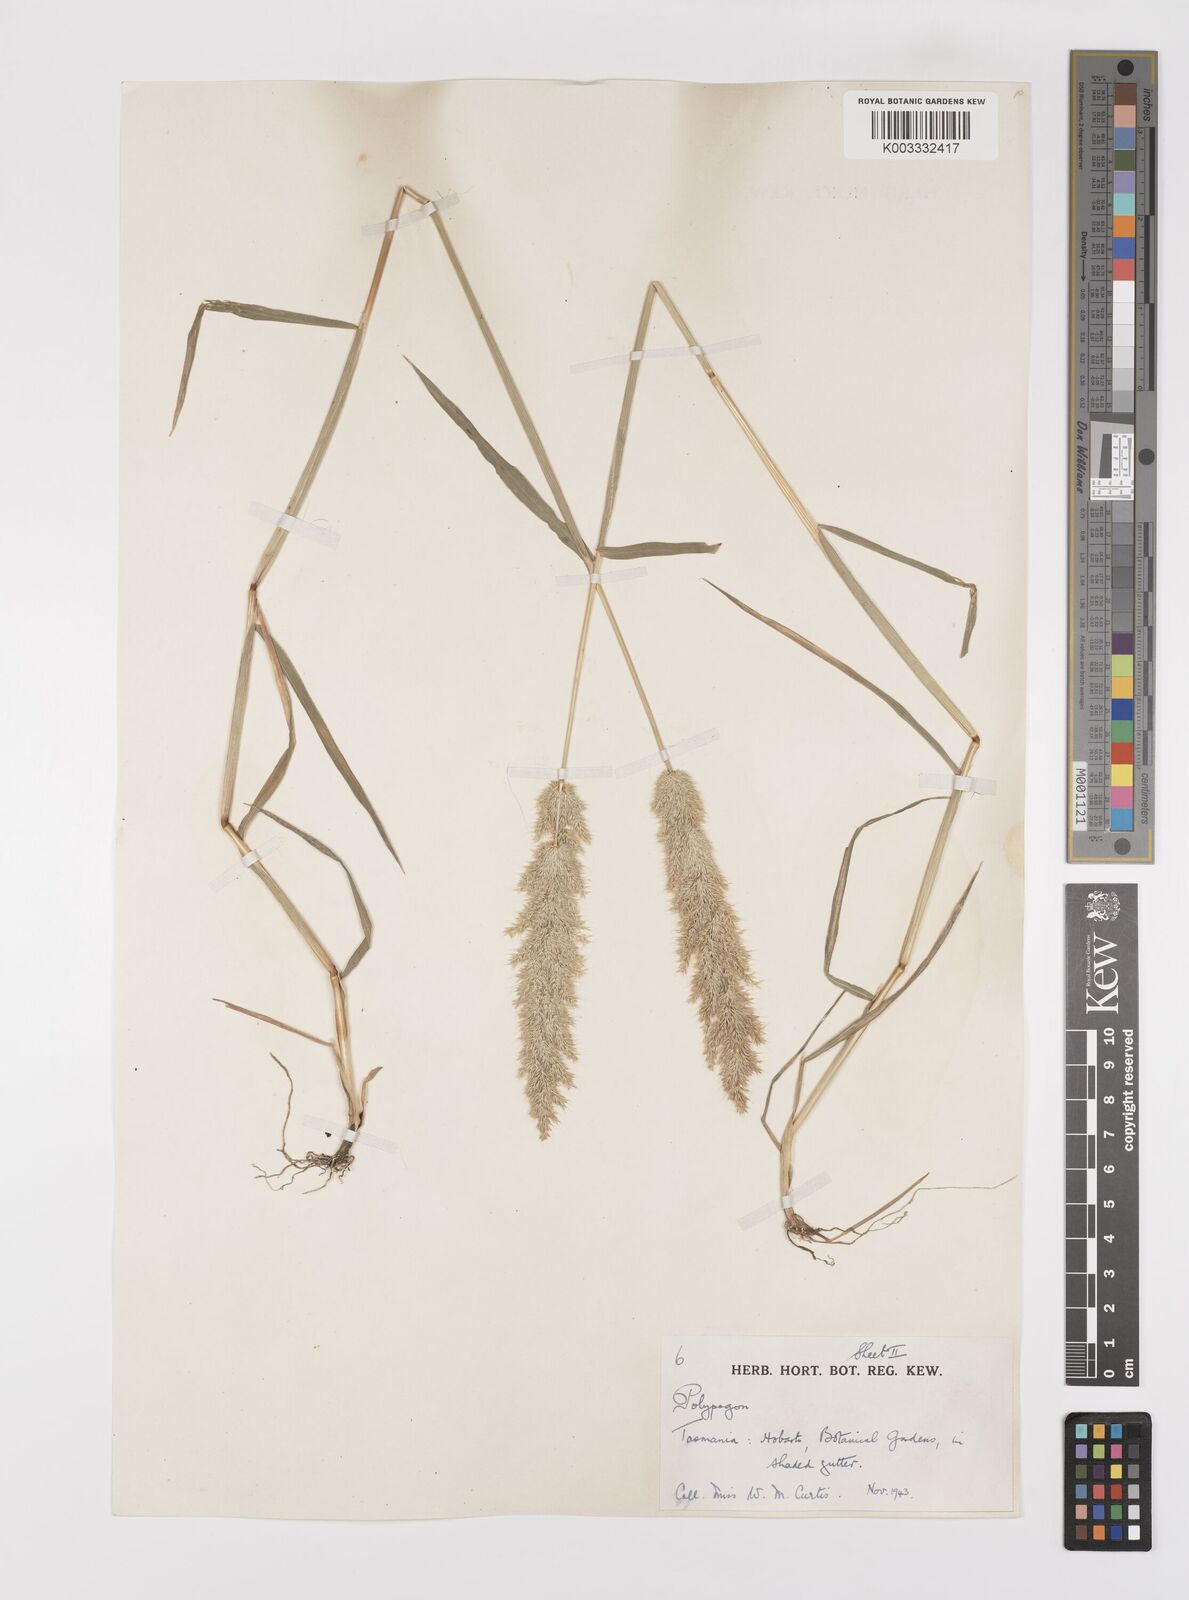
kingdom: Plantae
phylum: Tracheophyta
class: Liliopsida
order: Poales
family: Poaceae
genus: Polypogon
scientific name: Polypogon fugax
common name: Asia minor bluegrass
